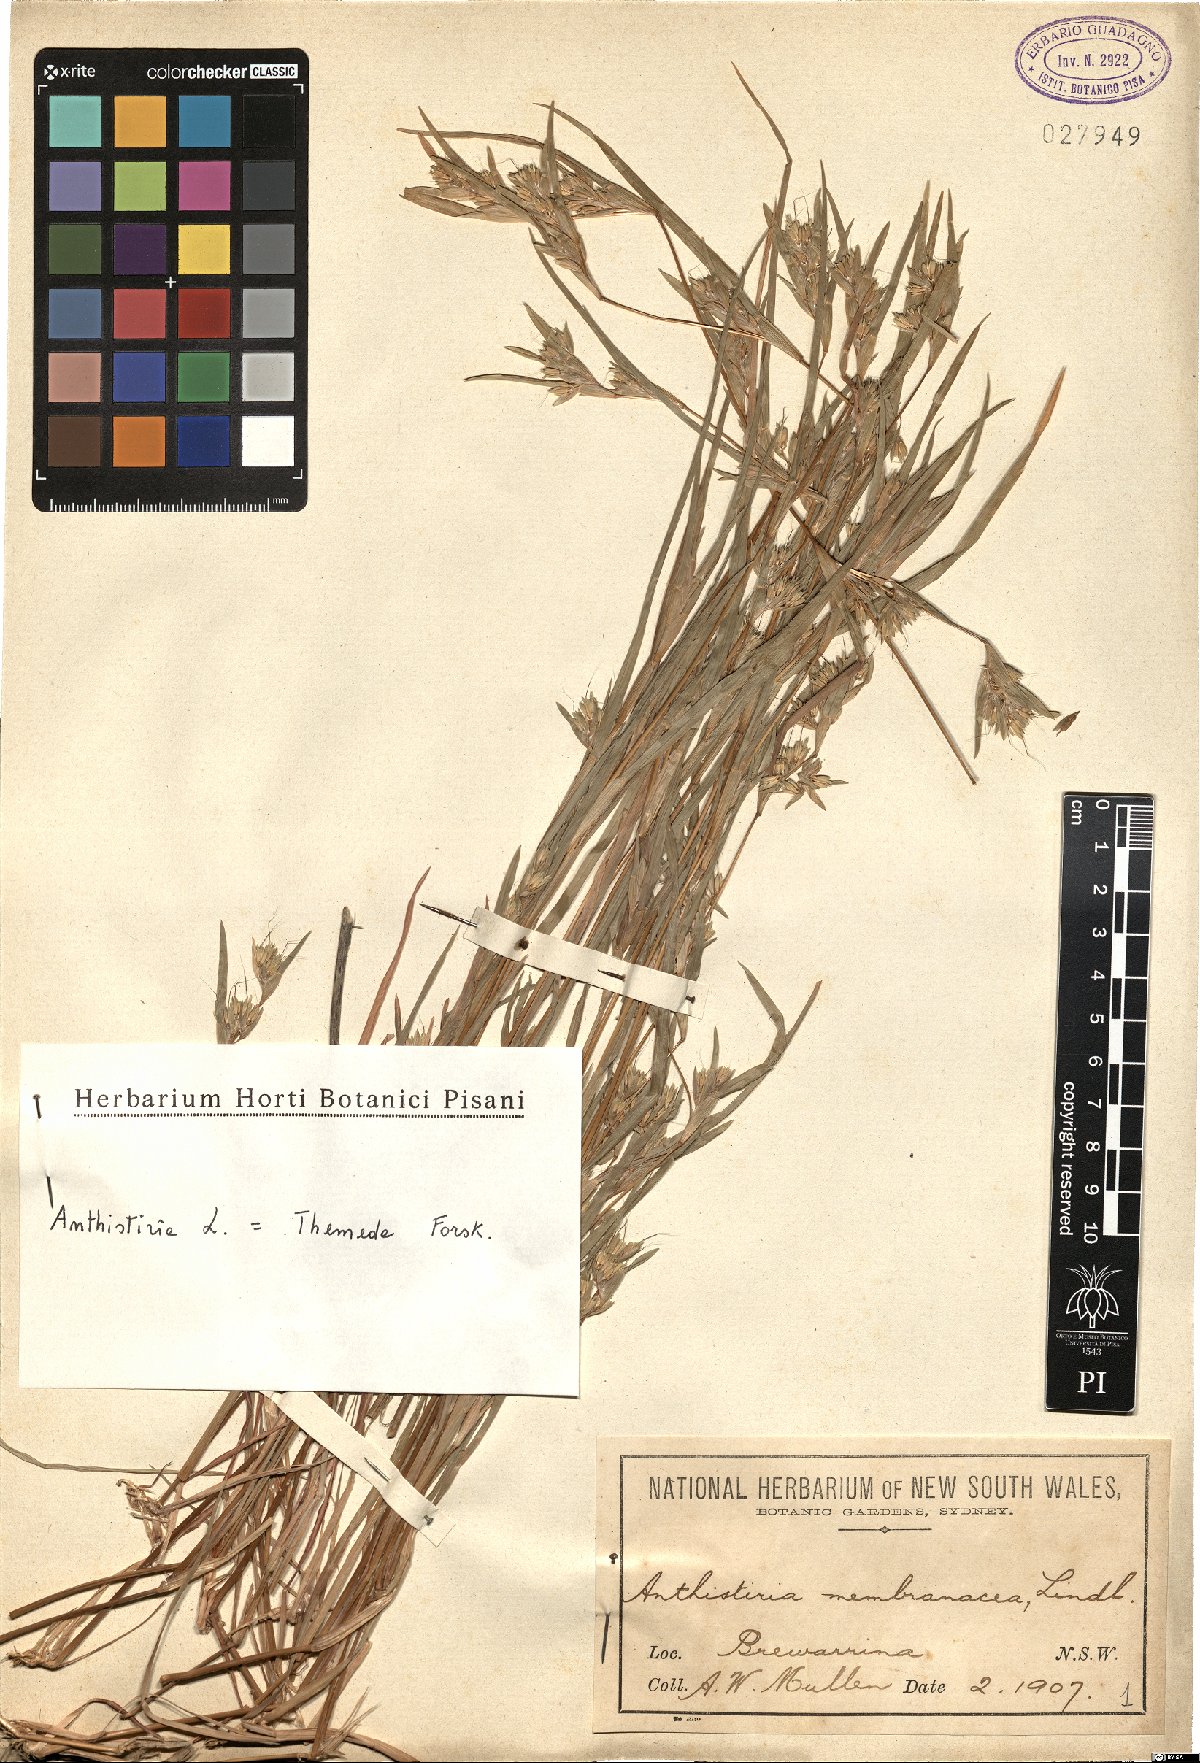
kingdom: Plantae
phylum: Tracheophyta
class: Liliopsida
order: Poales
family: Poaceae
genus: Iseilema
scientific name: Iseilema membranaceum
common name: Small flinders grass
